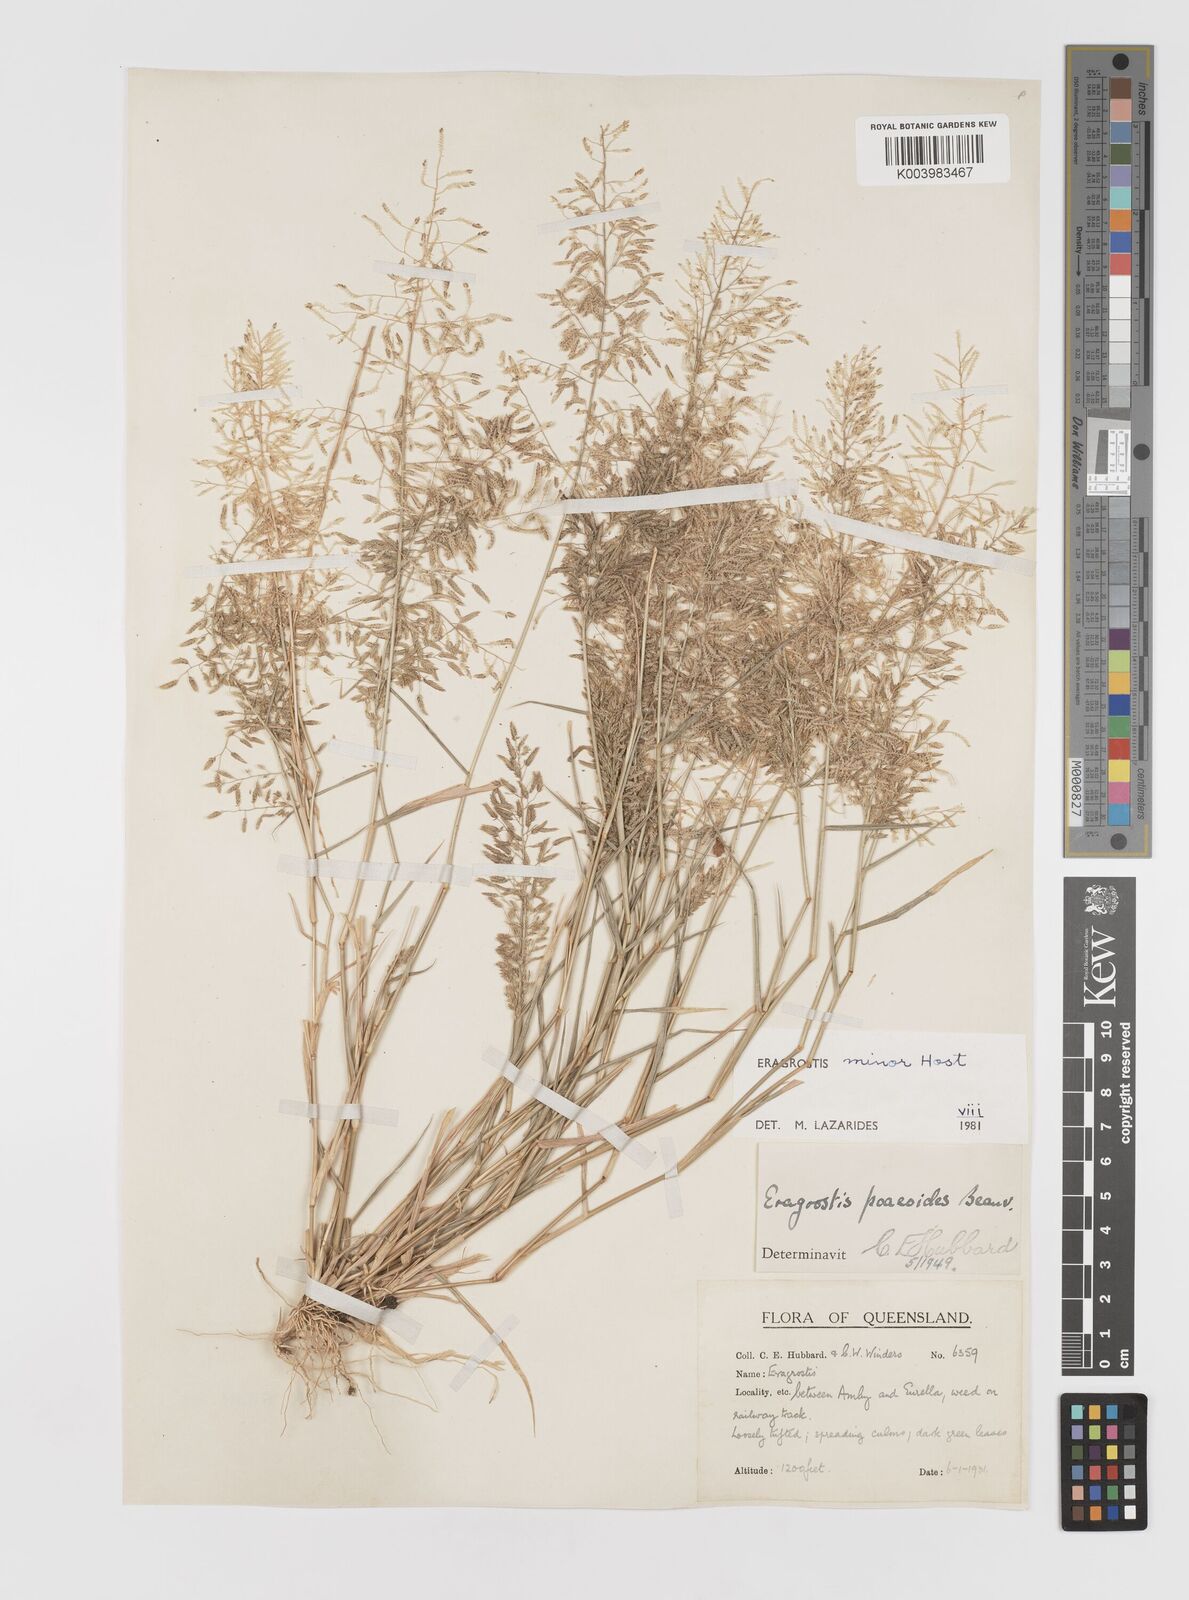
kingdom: Plantae
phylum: Tracheophyta
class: Liliopsida
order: Poales
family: Poaceae
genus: Eragrostis
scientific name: Eragrostis minor
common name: Small love-grass
